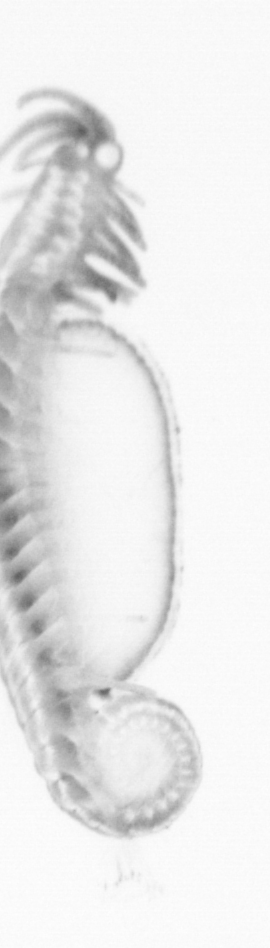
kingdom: Animalia
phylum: Annelida
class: Polychaeta
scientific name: Polychaeta
